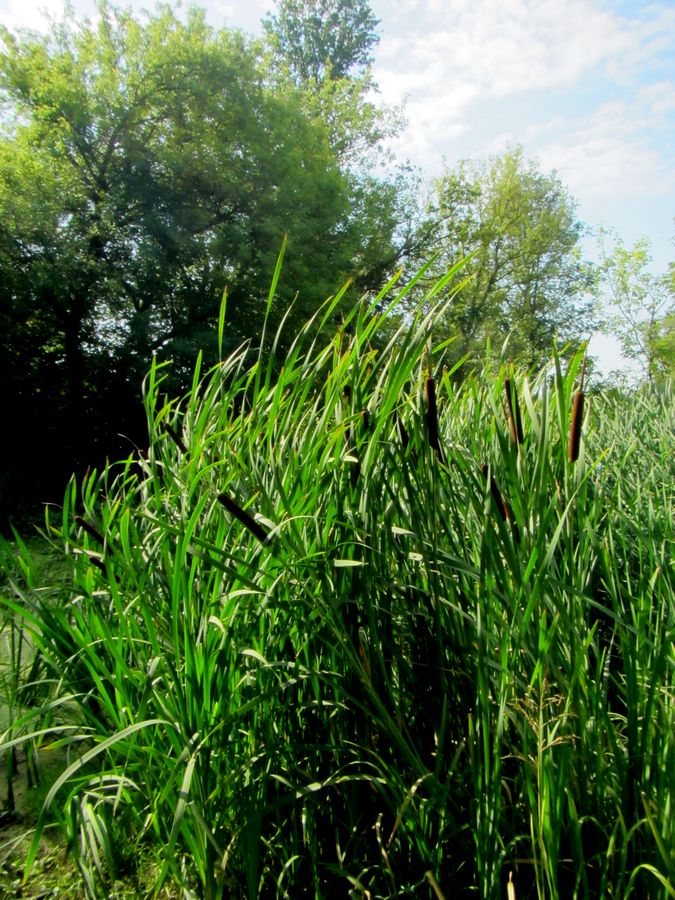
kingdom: Plantae
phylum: Tracheophyta
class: Liliopsida
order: Poales
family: Typhaceae
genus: Typha
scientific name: Typha latifolia
